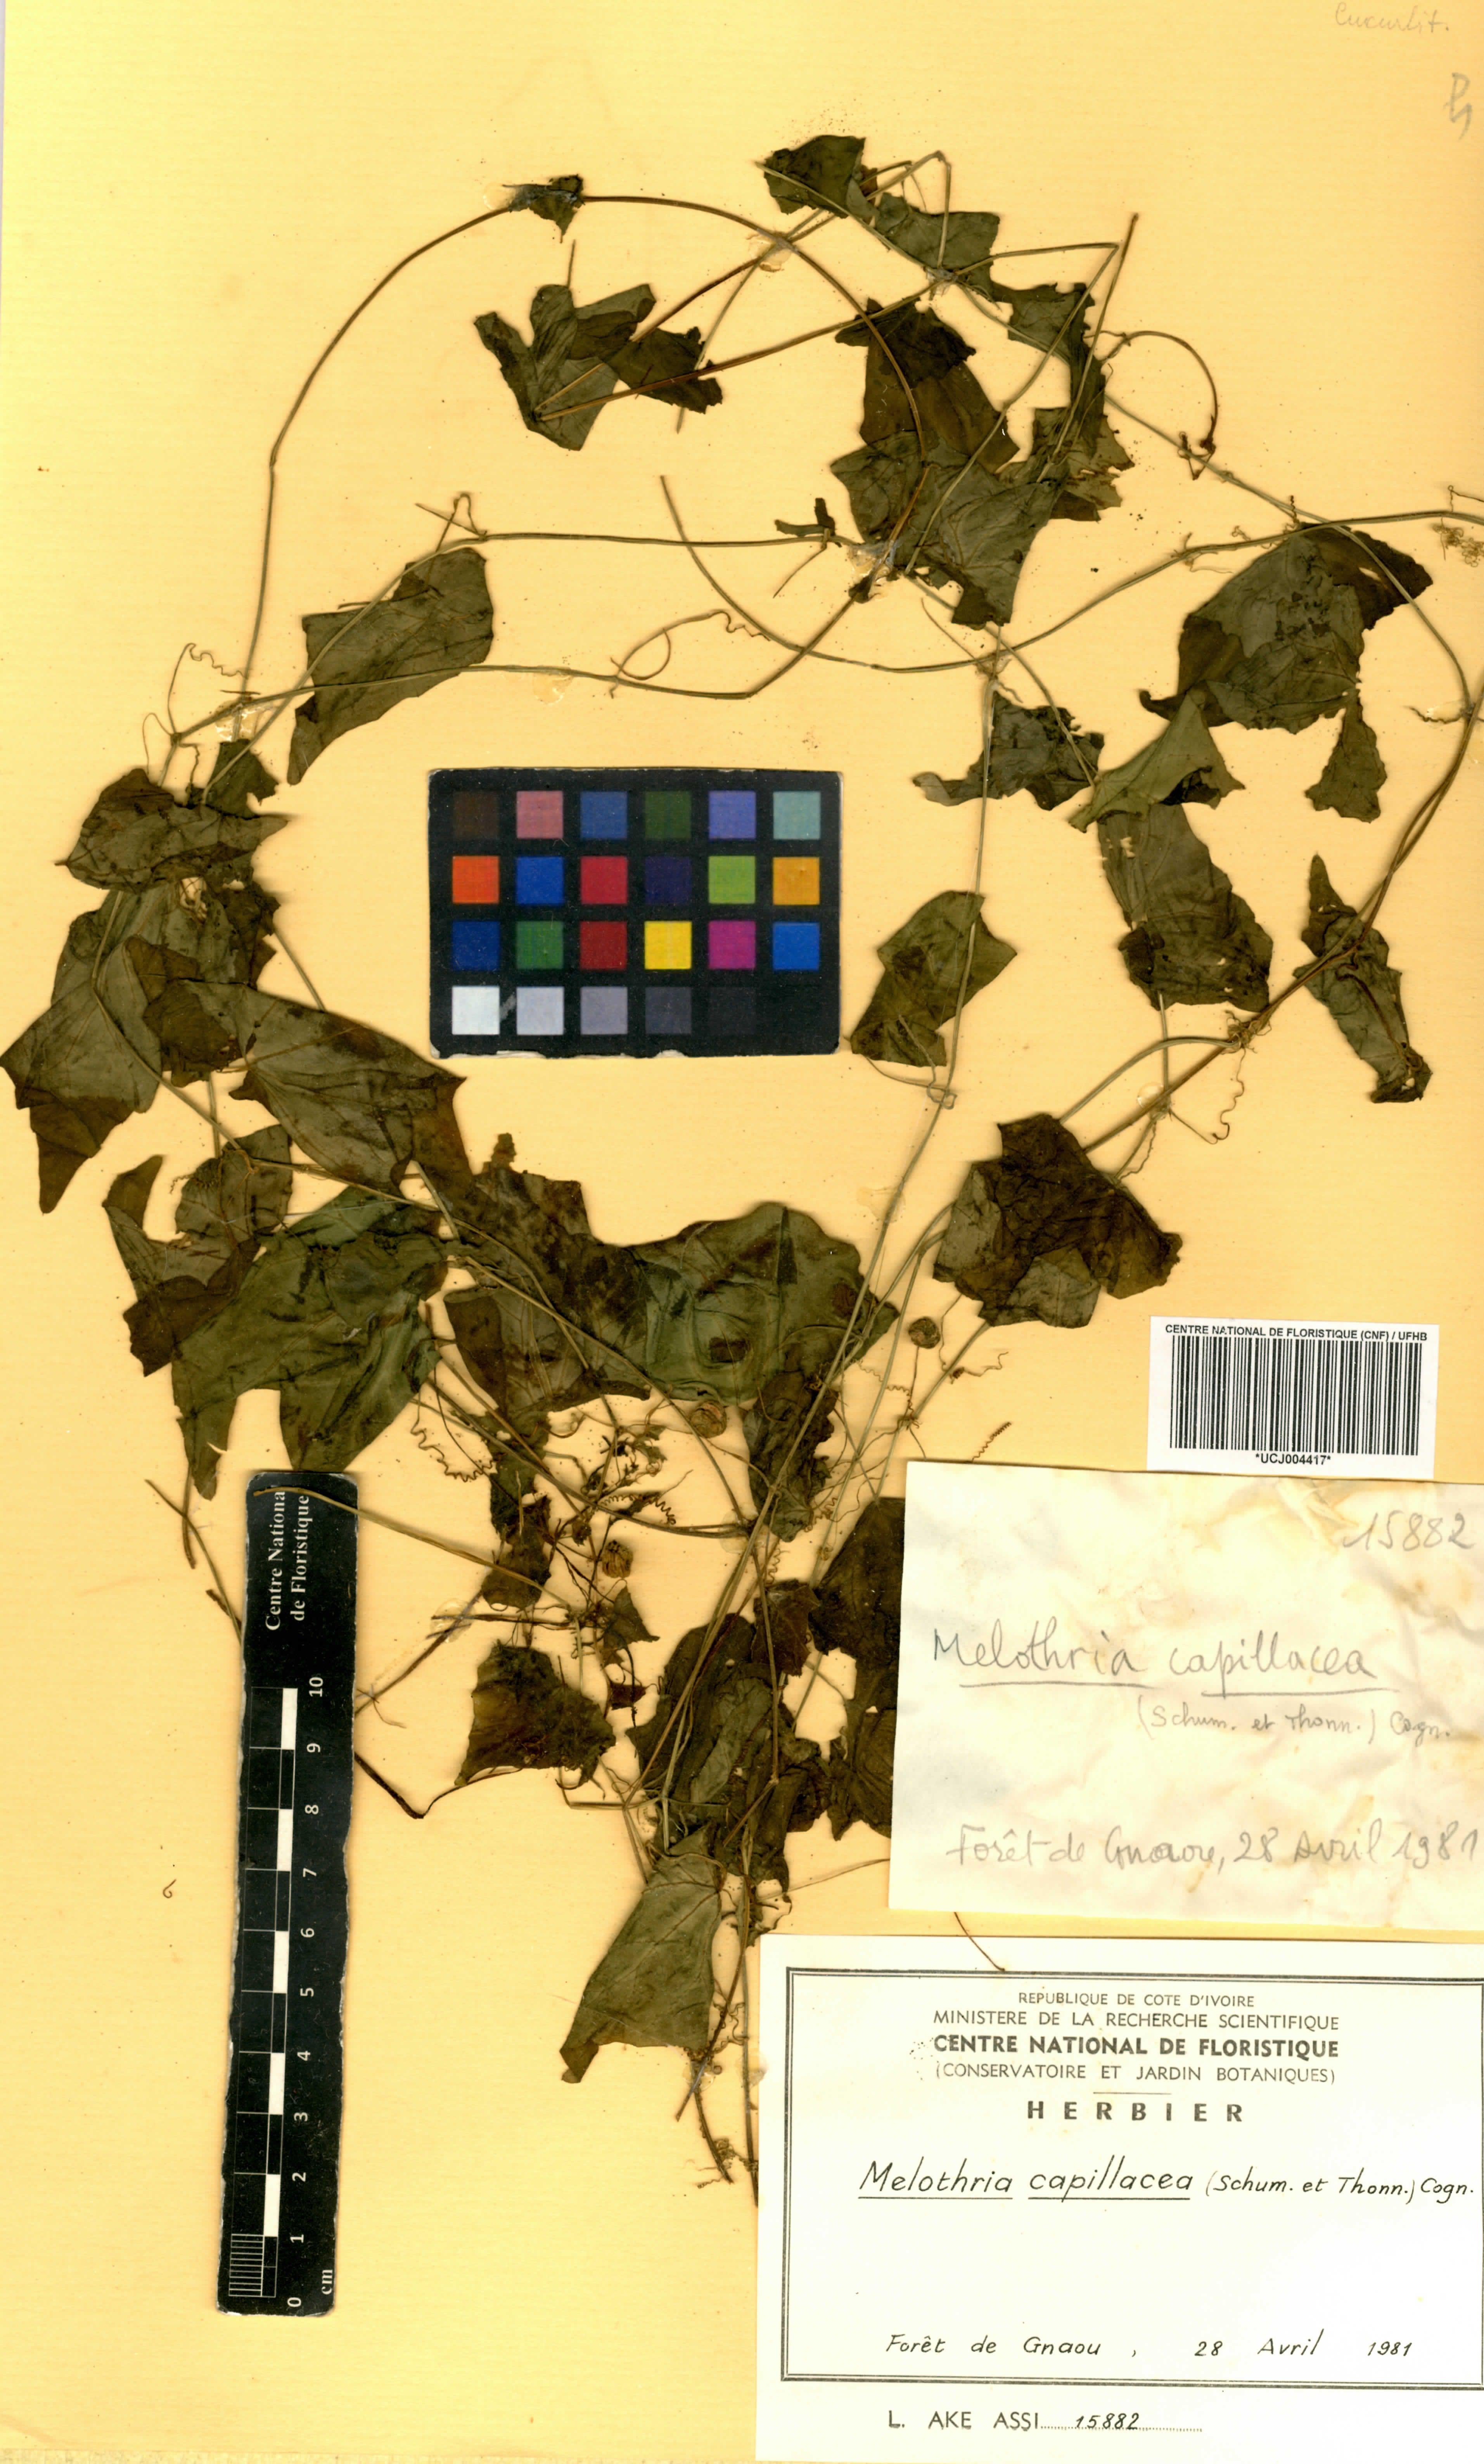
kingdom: Plantae
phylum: Tracheophyta
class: Magnoliopsida
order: Cucurbitales
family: Cucurbitaceae
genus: Zehneria
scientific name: Zehneria capillacea
